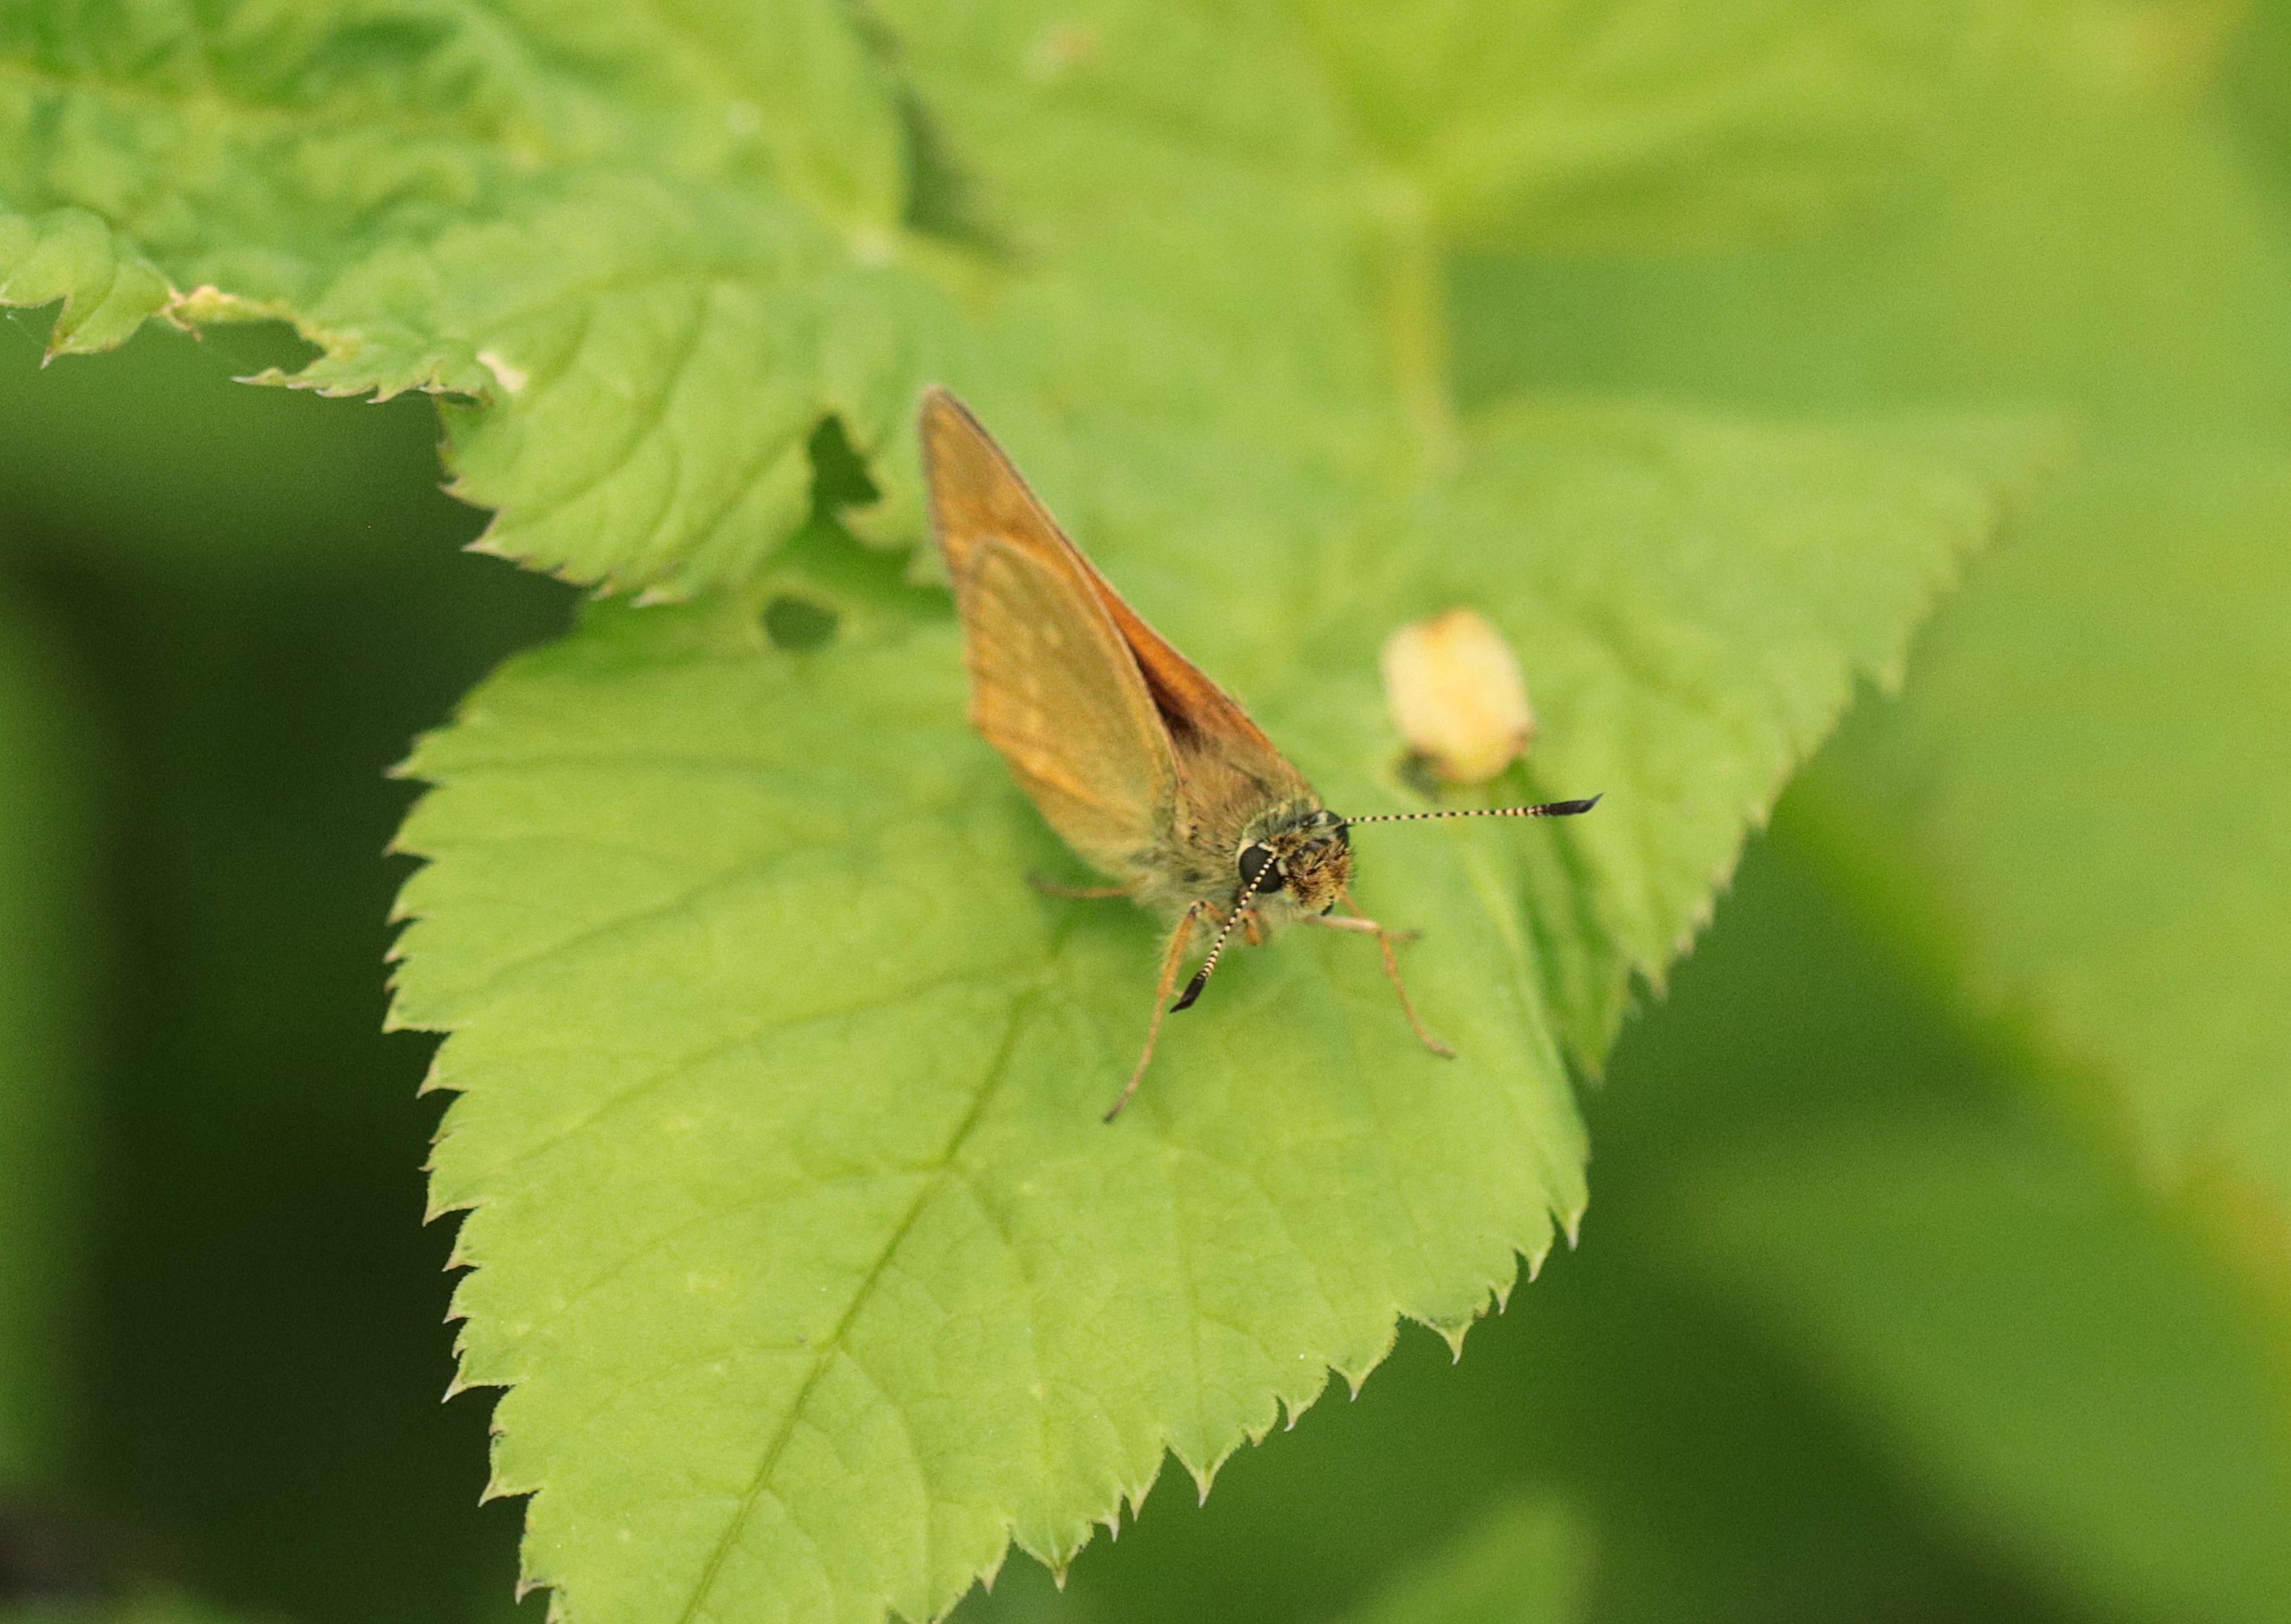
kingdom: Animalia
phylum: Arthropoda
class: Insecta
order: Lepidoptera
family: Hesperiidae
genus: Ochlodes
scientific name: Ochlodes venata
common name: Stor bredpande
